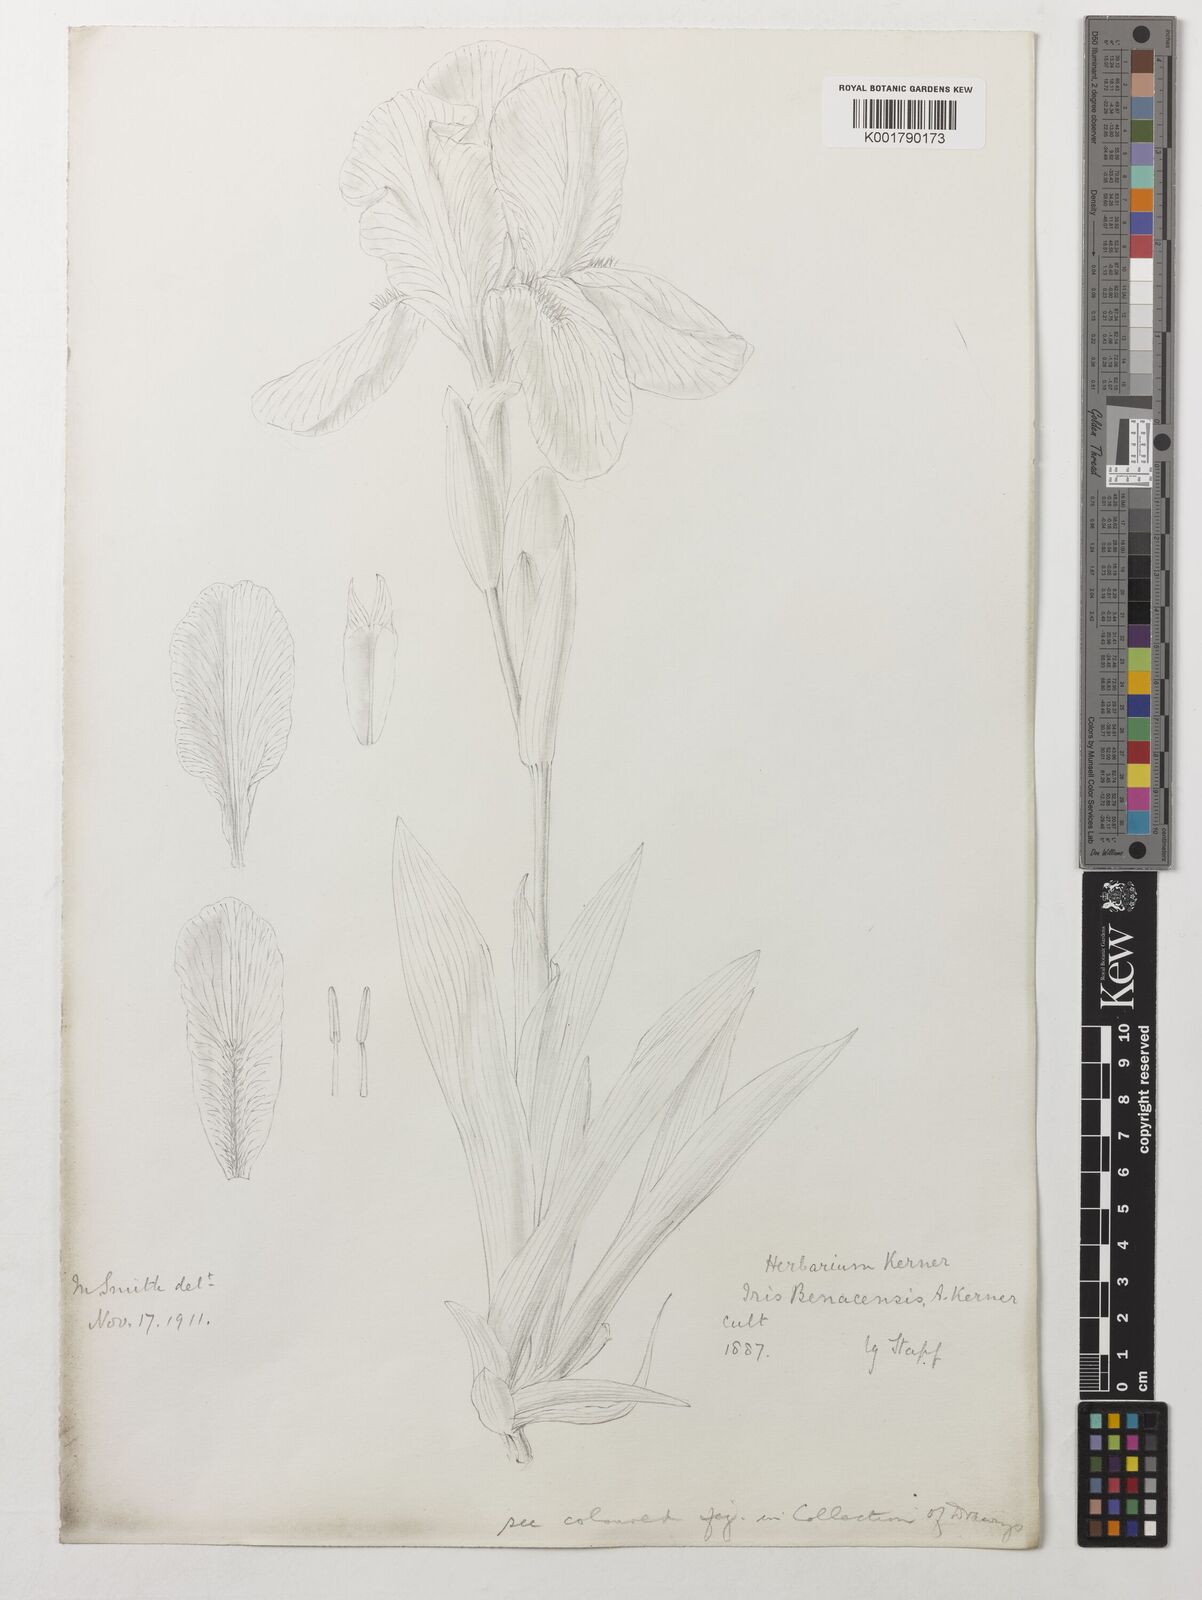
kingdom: Plantae
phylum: Tracheophyta
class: Liliopsida
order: Asparagales
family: Iridaceae
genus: Iris
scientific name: Iris benacensis
